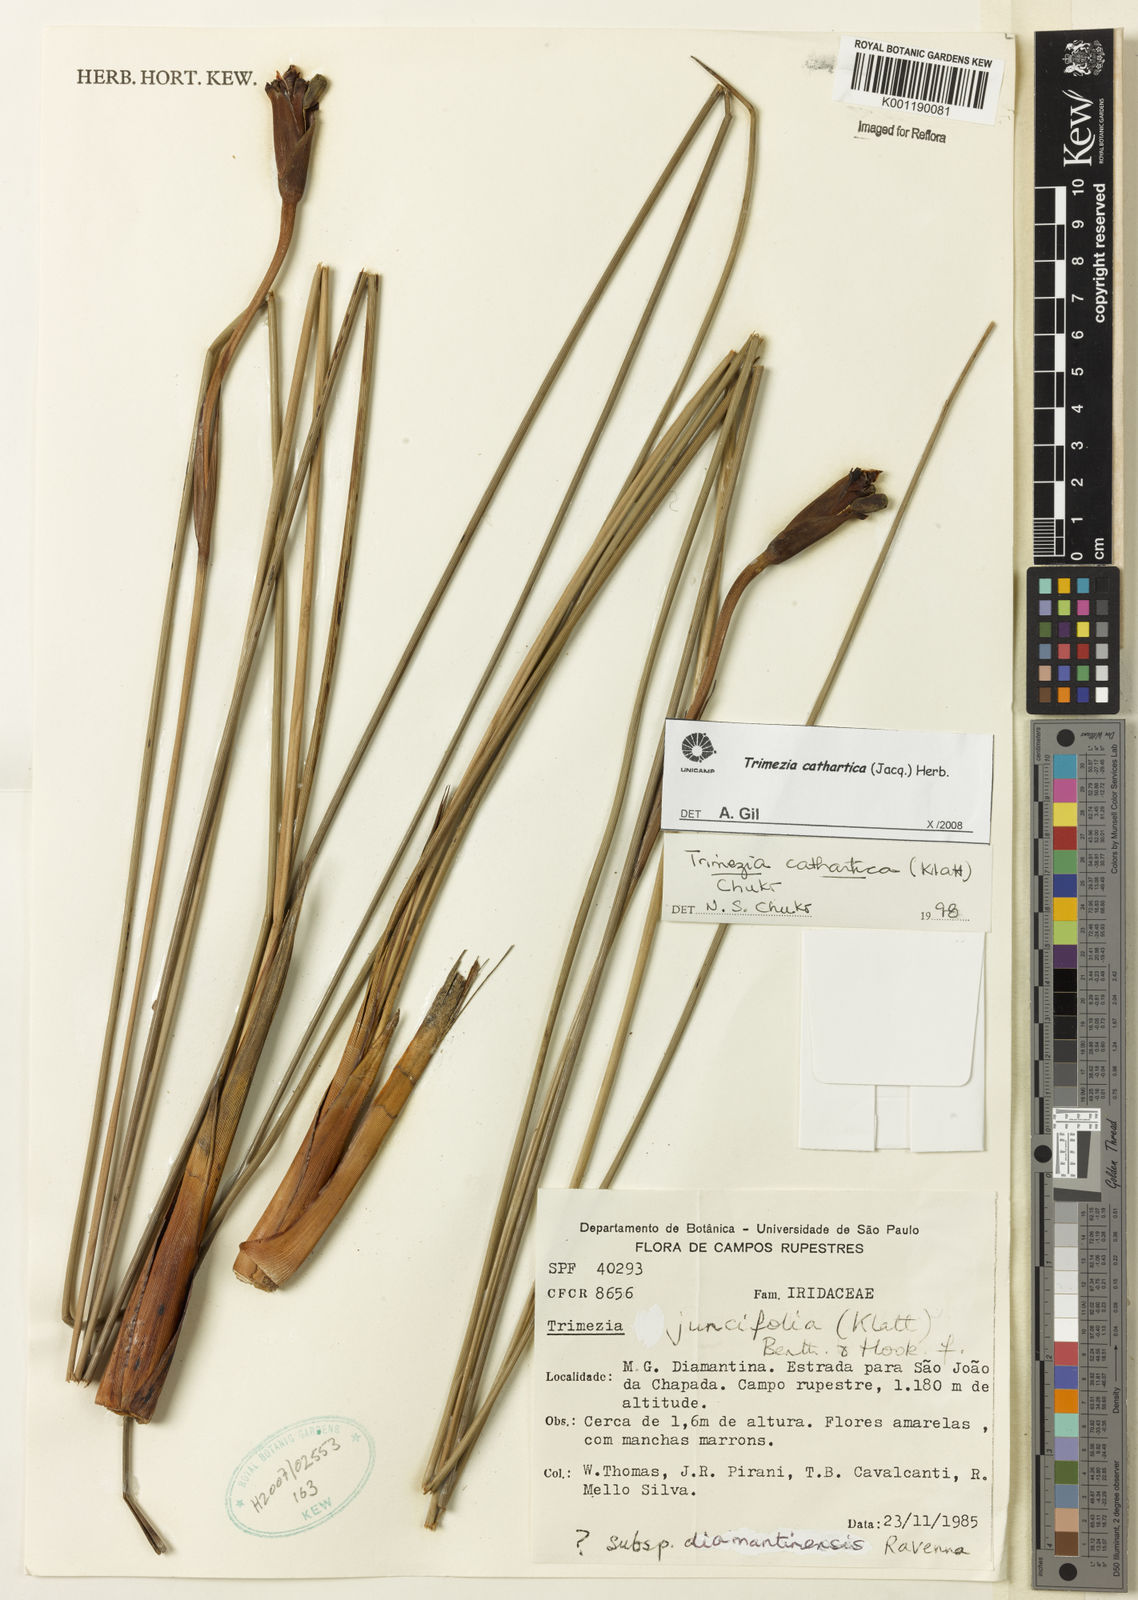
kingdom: Plantae
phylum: Tracheophyta
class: Liliopsida
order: Asparagales
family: Iridaceae
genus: Trimezia
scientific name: Trimezia cathartica
